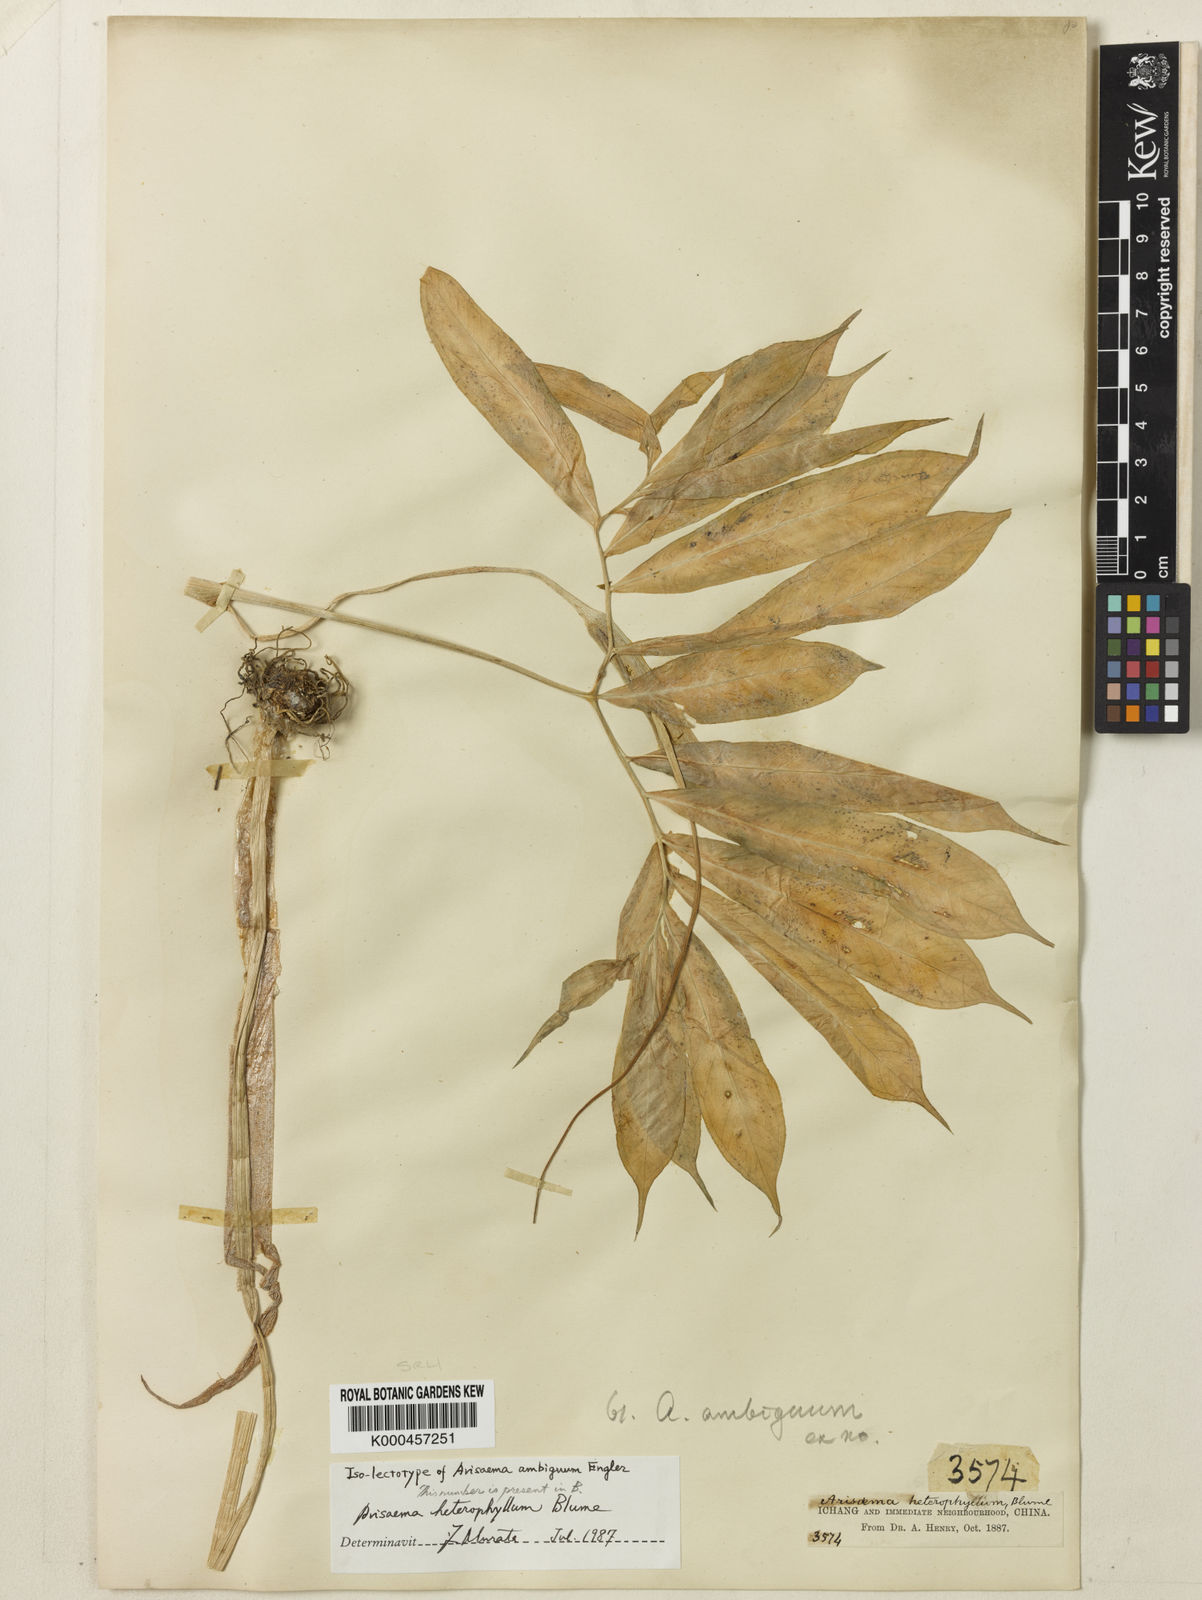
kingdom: Plantae
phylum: Tracheophyta
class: Liliopsida
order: Alismatales
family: Araceae
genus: Arisaema
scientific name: Arisaema heterophyllum
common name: Dancing crane cobra lily
